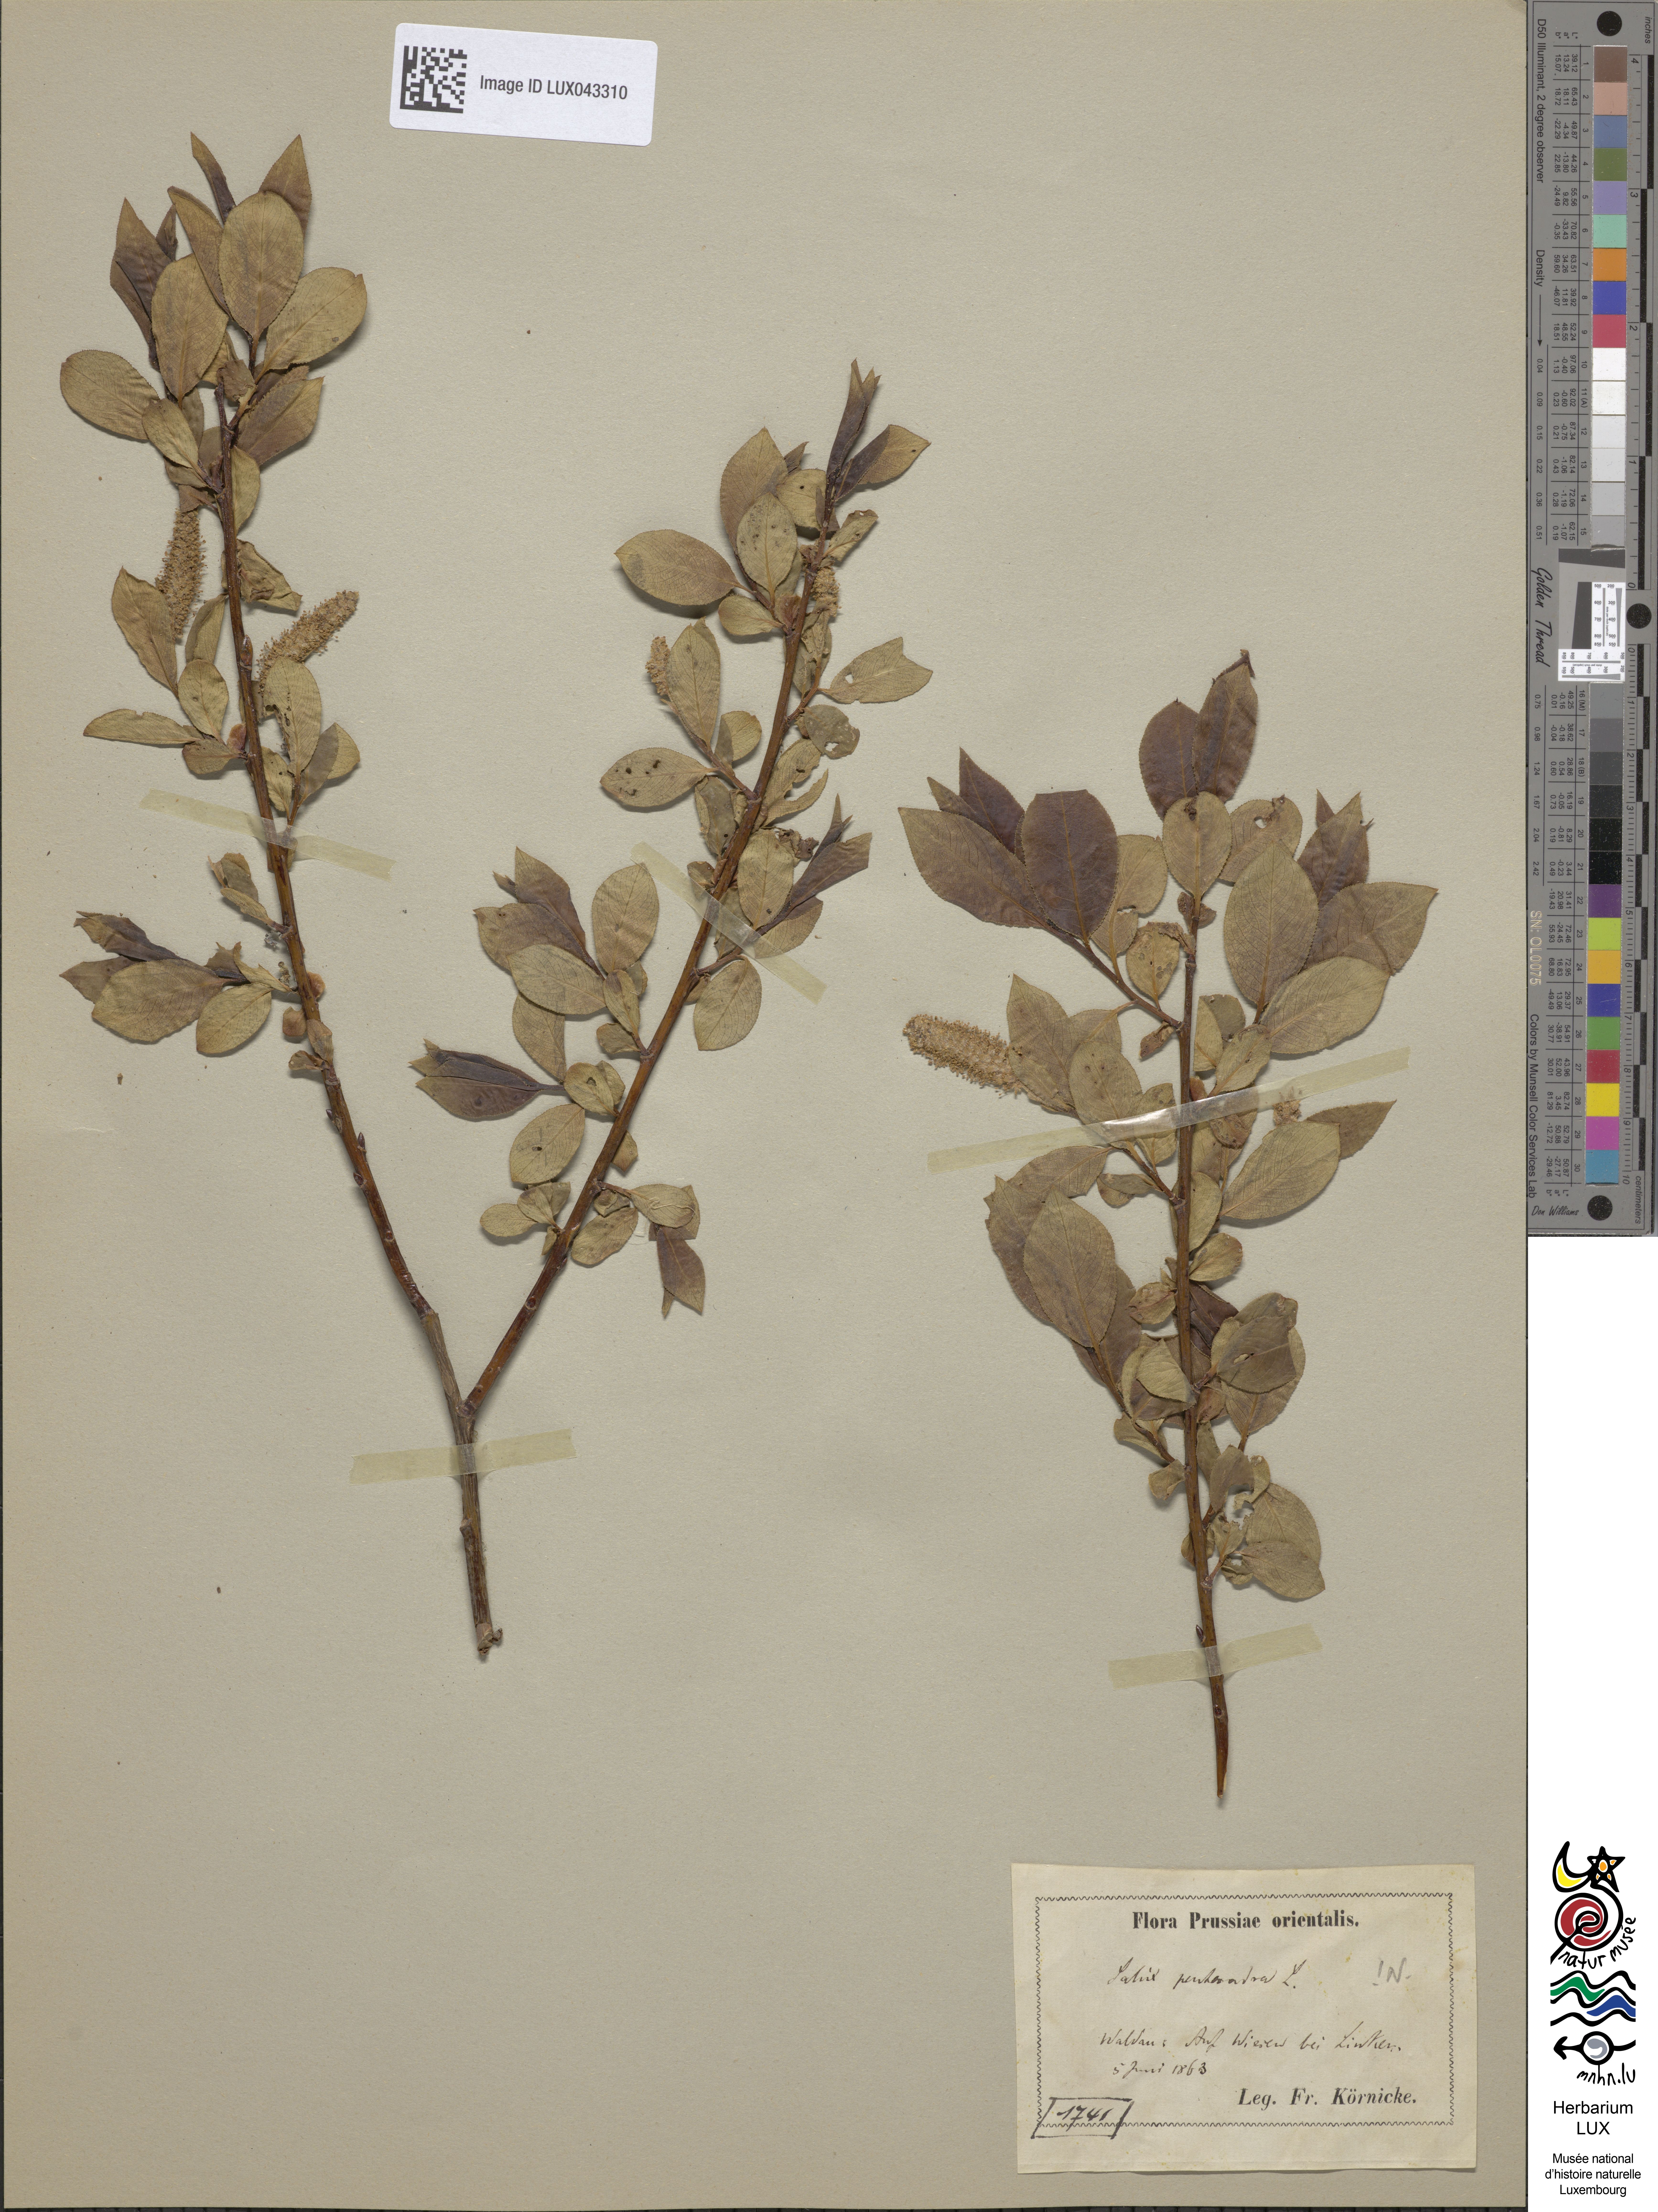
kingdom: Plantae
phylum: Tracheophyta
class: Magnoliopsida
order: Malpighiales
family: Salicaceae
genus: Salix
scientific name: Salix pentandra
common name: Bay willow
